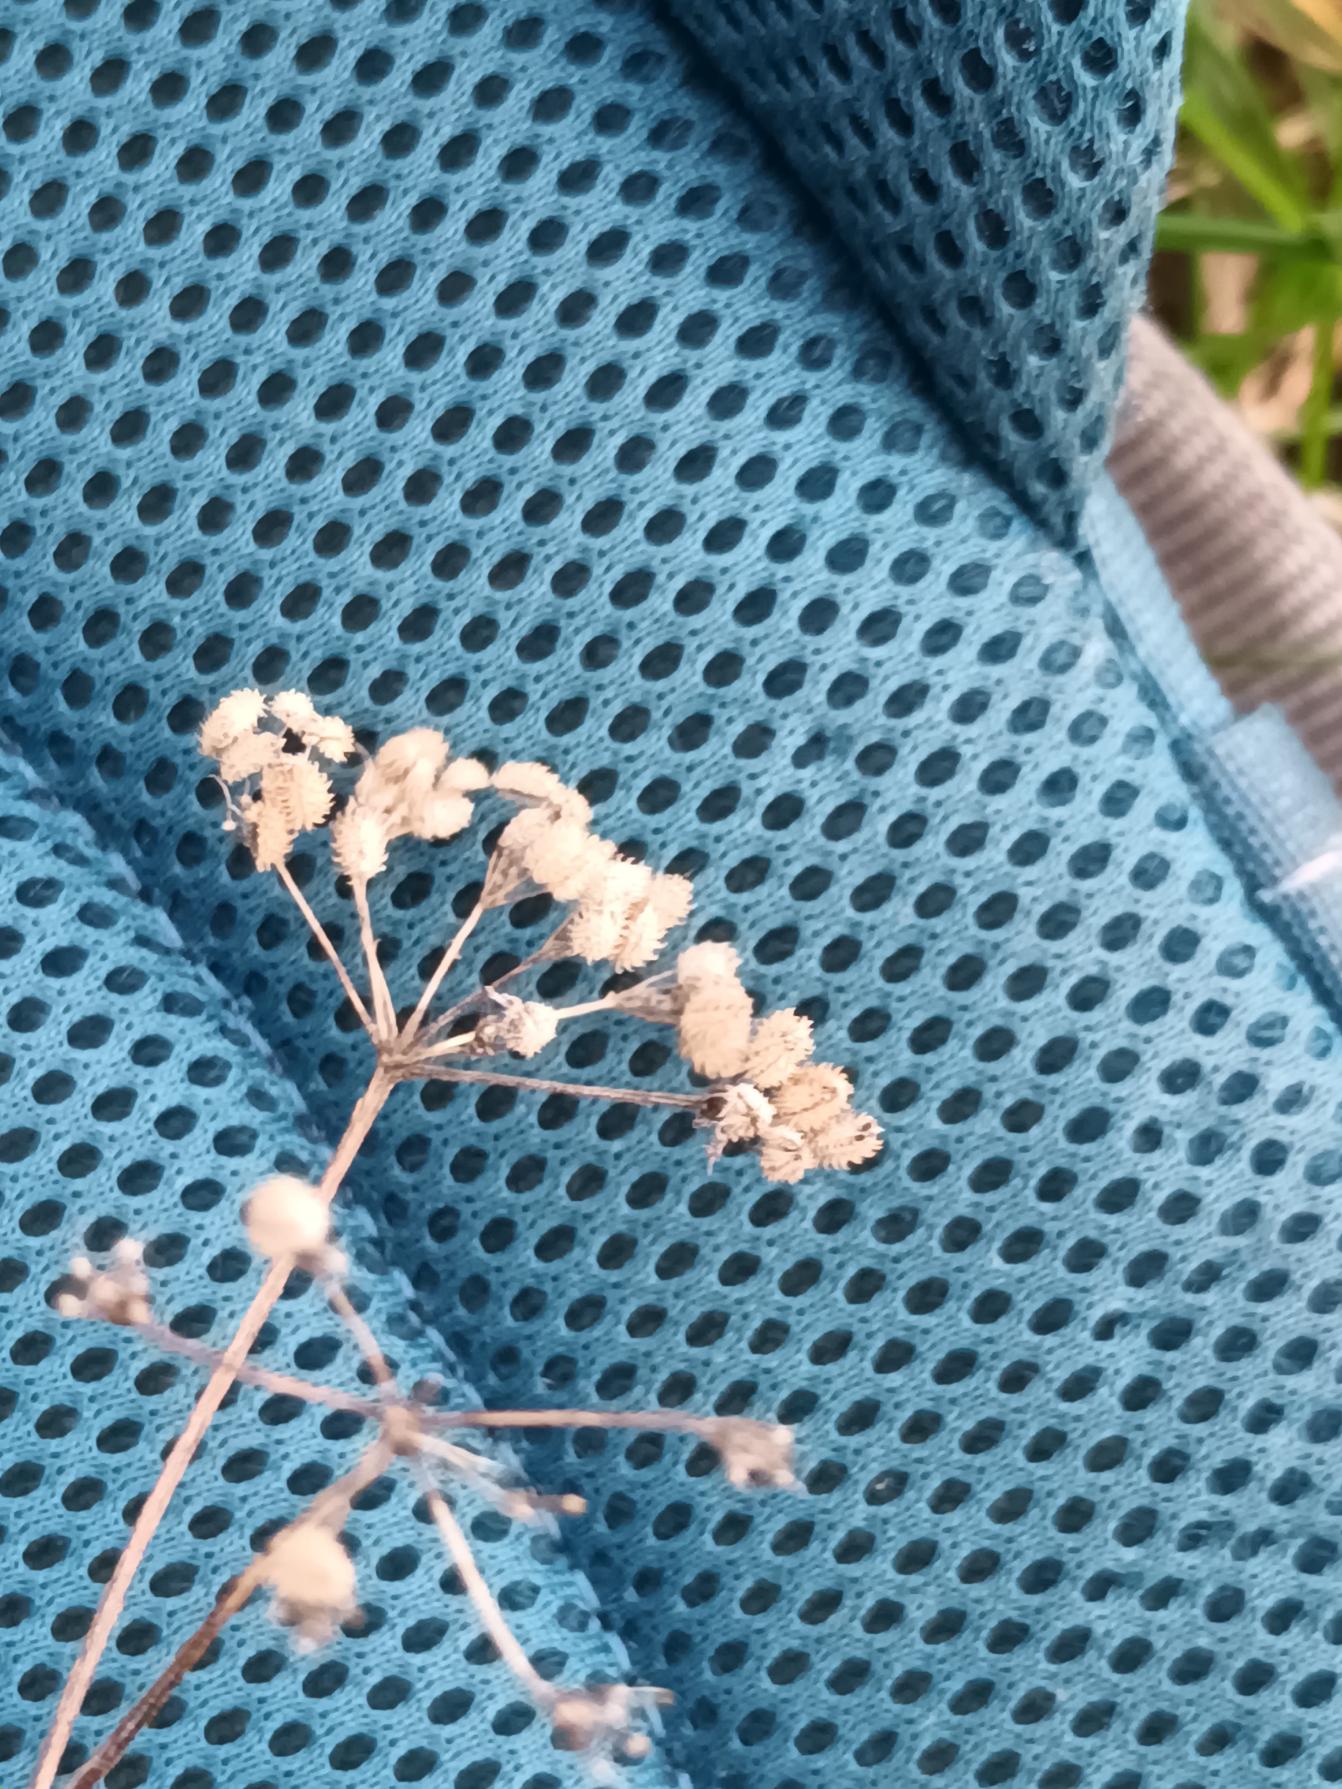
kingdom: Plantae
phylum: Tracheophyta
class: Magnoliopsida
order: Apiales
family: Apiaceae
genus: Torilis
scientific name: Torilis japonica
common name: Hvas randfrø
